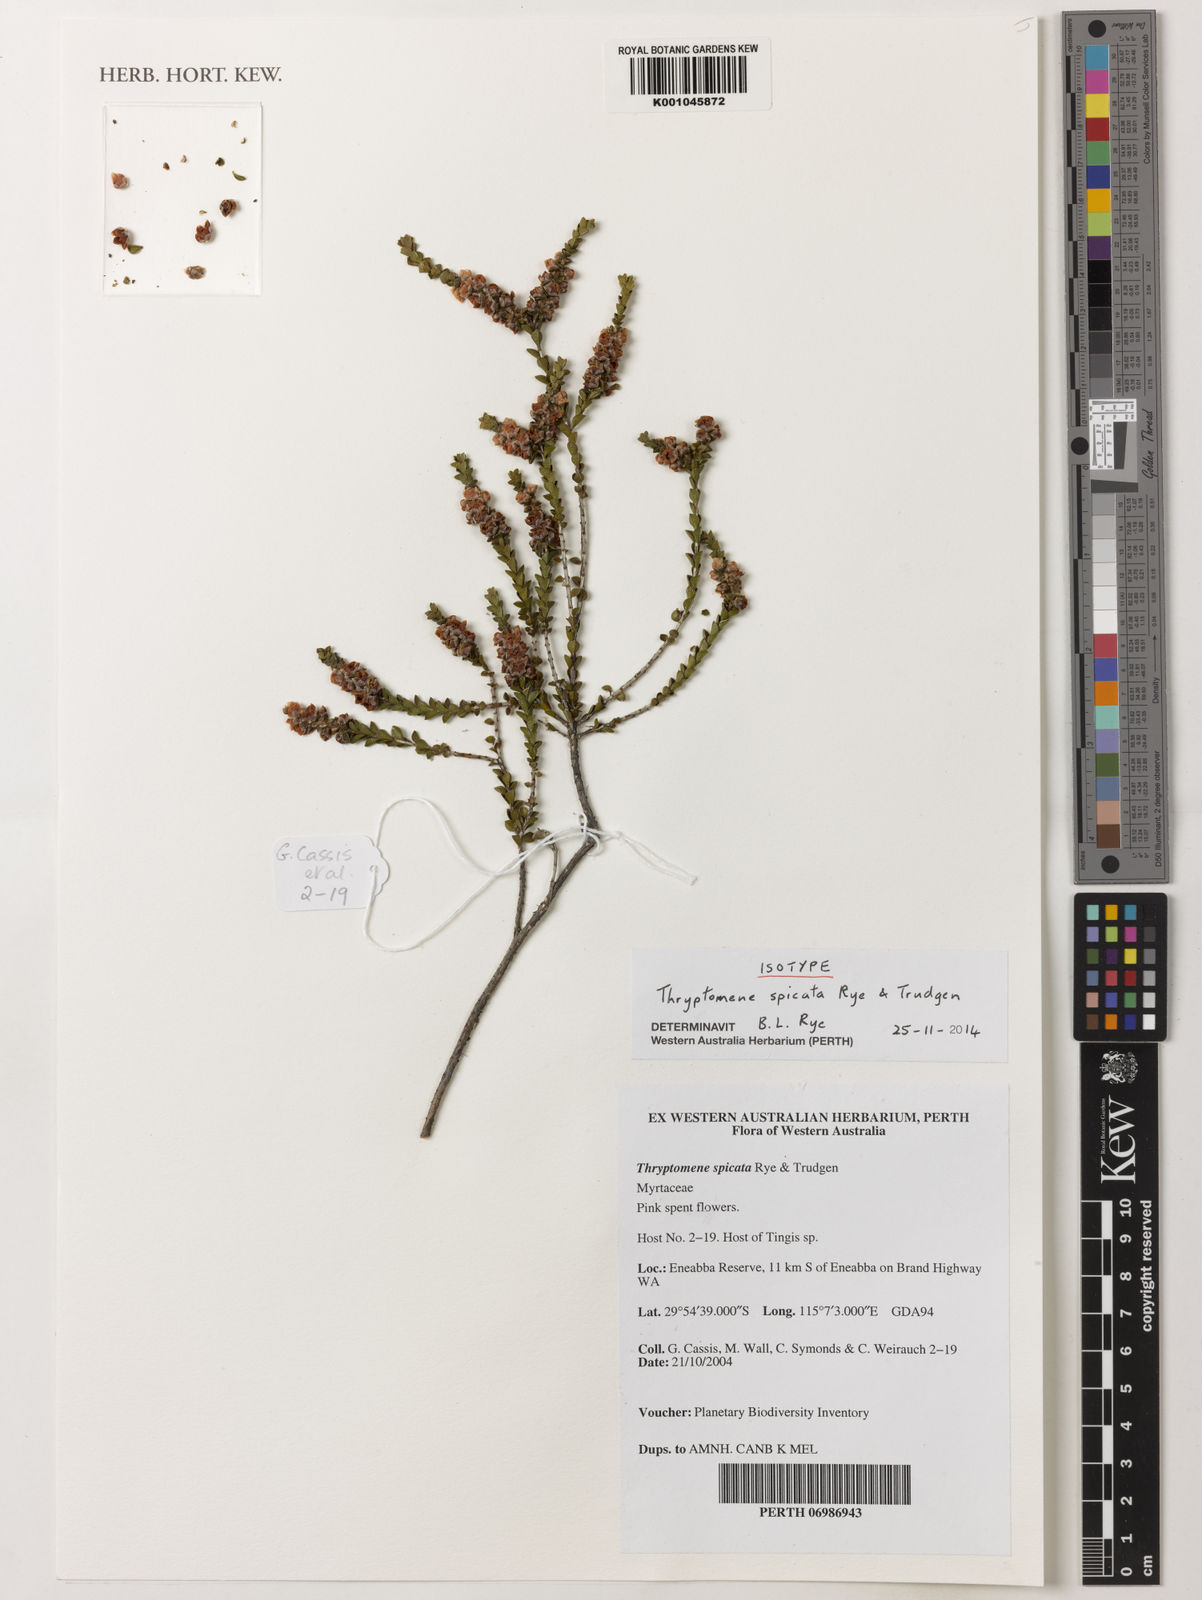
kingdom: Plantae
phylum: Tracheophyta
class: Magnoliopsida
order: Myrtales
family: Myrtaceae
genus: Thryptomene
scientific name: Thryptomene spicata
